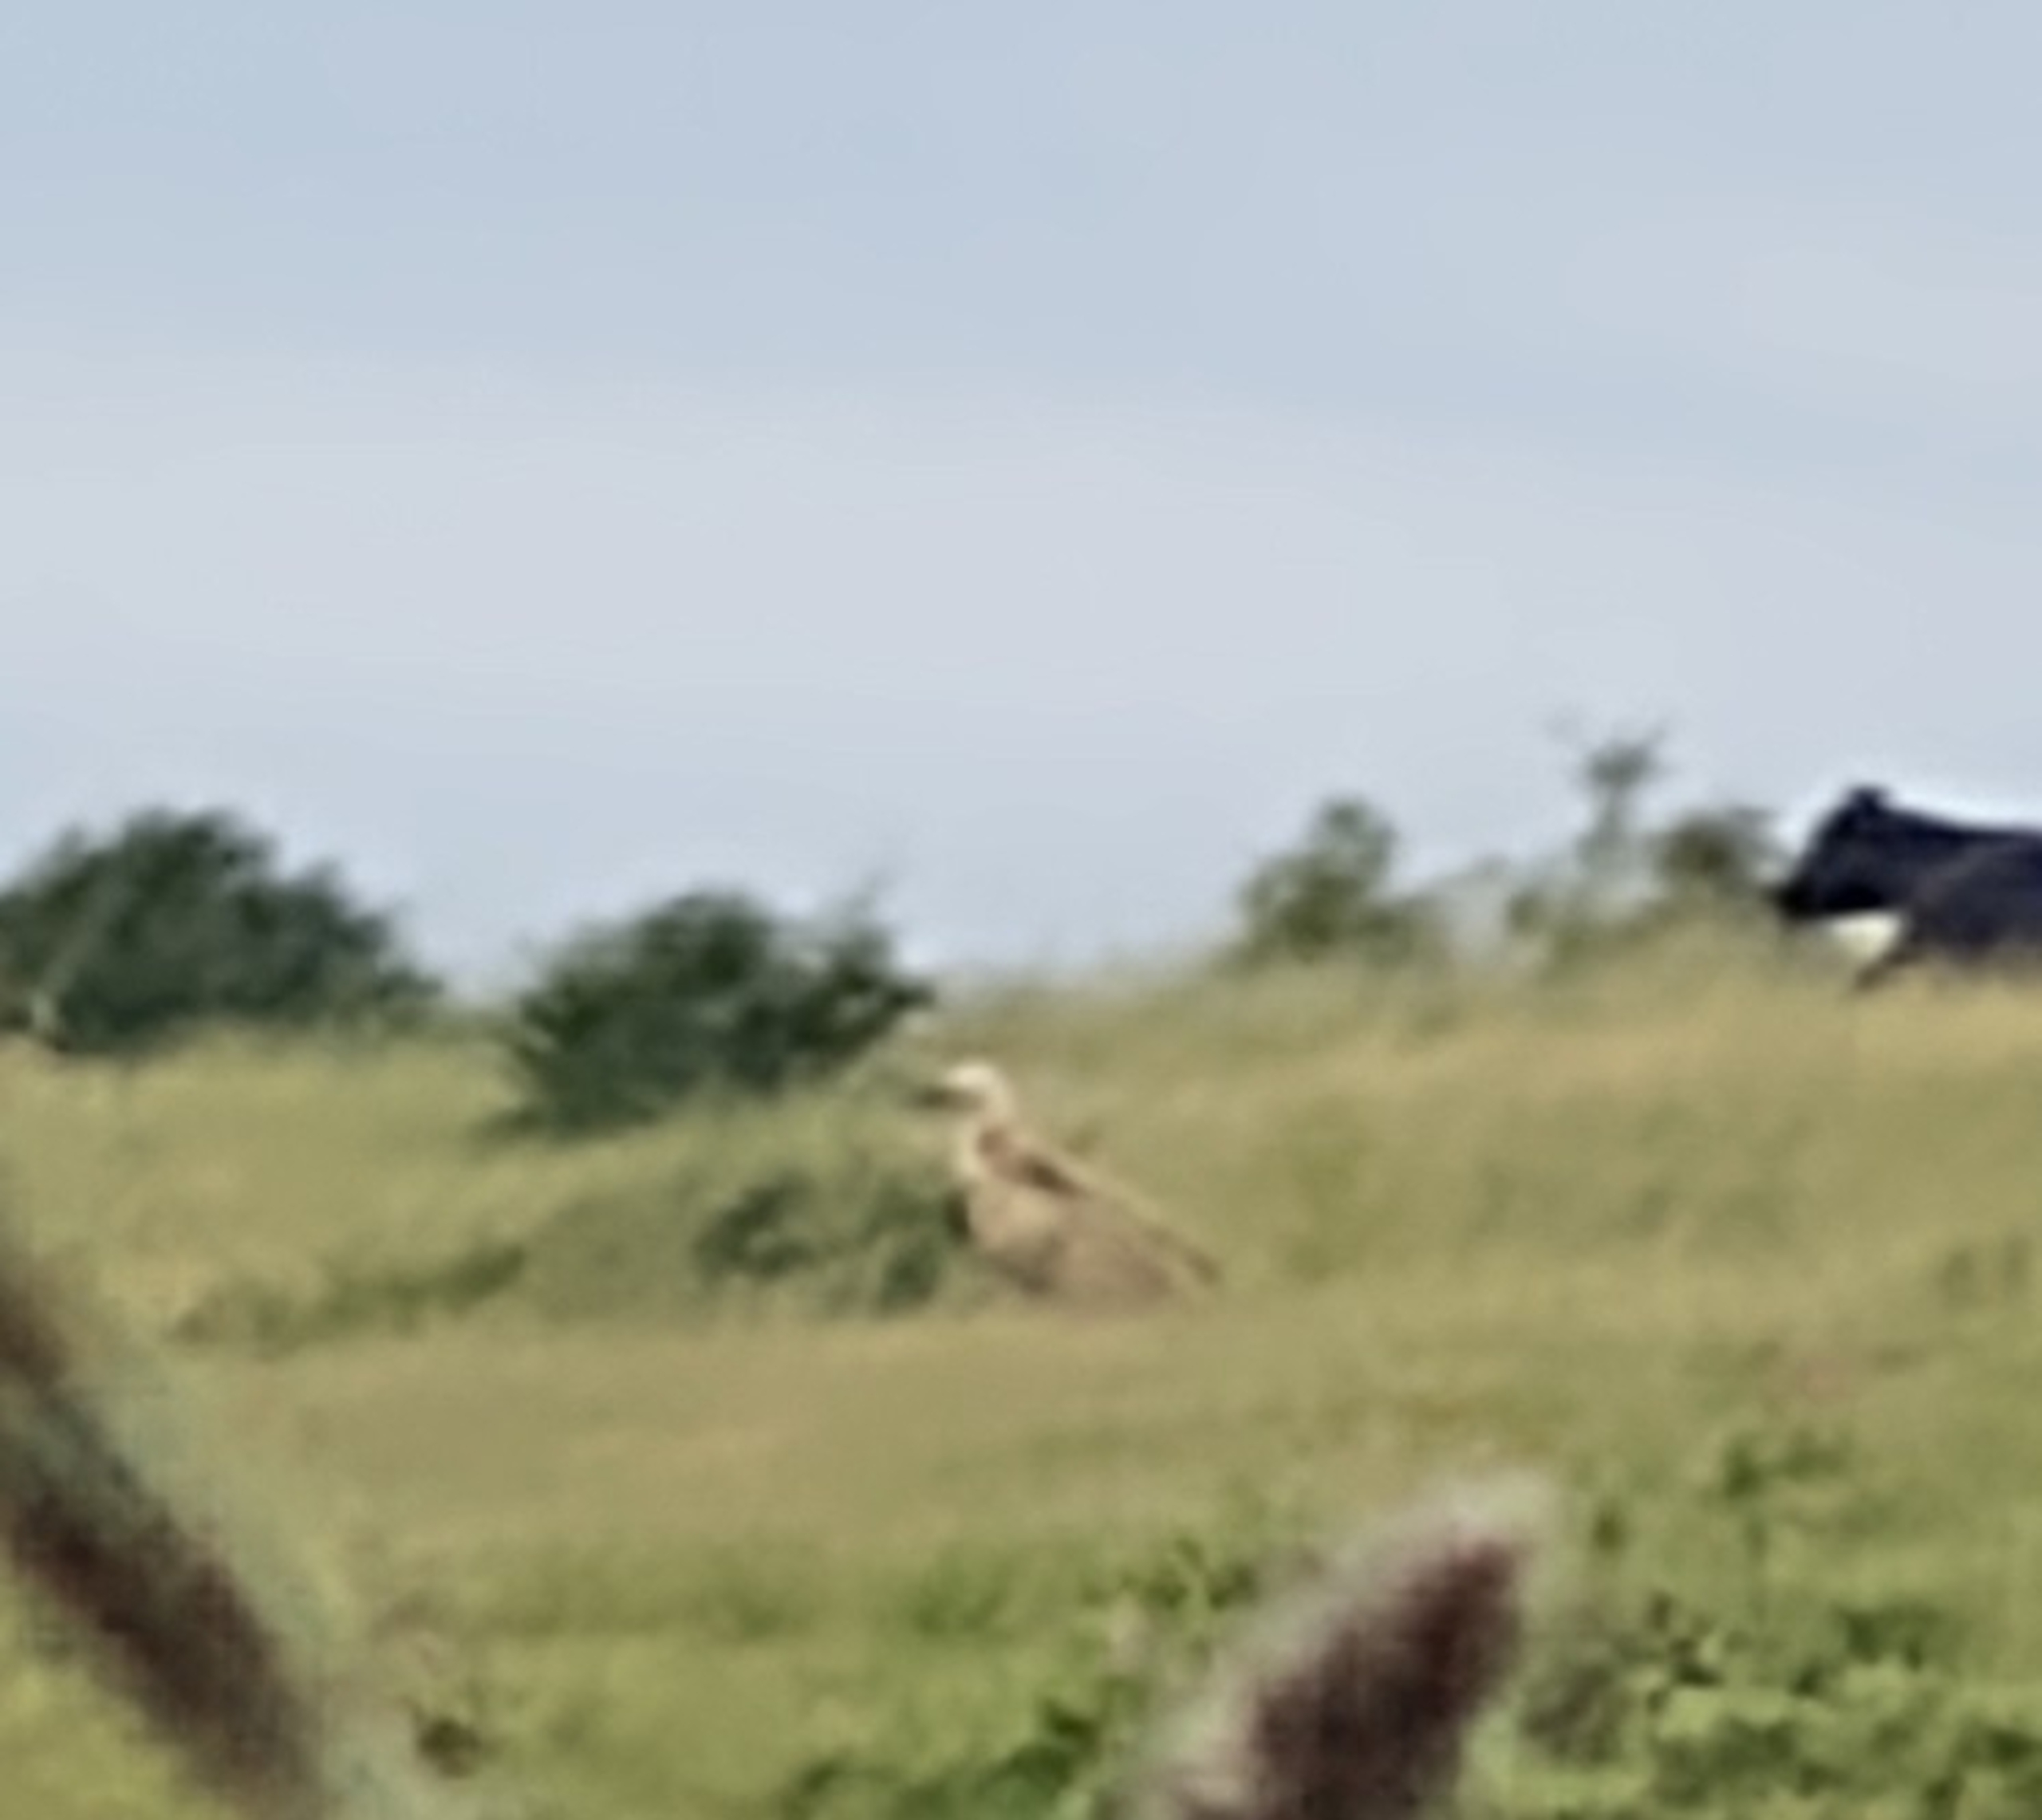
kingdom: Animalia
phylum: Chordata
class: Aves
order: Accipitriformes
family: Accipitridae
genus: Gyps
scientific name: Gyps fulvus
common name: Gåsegrib
